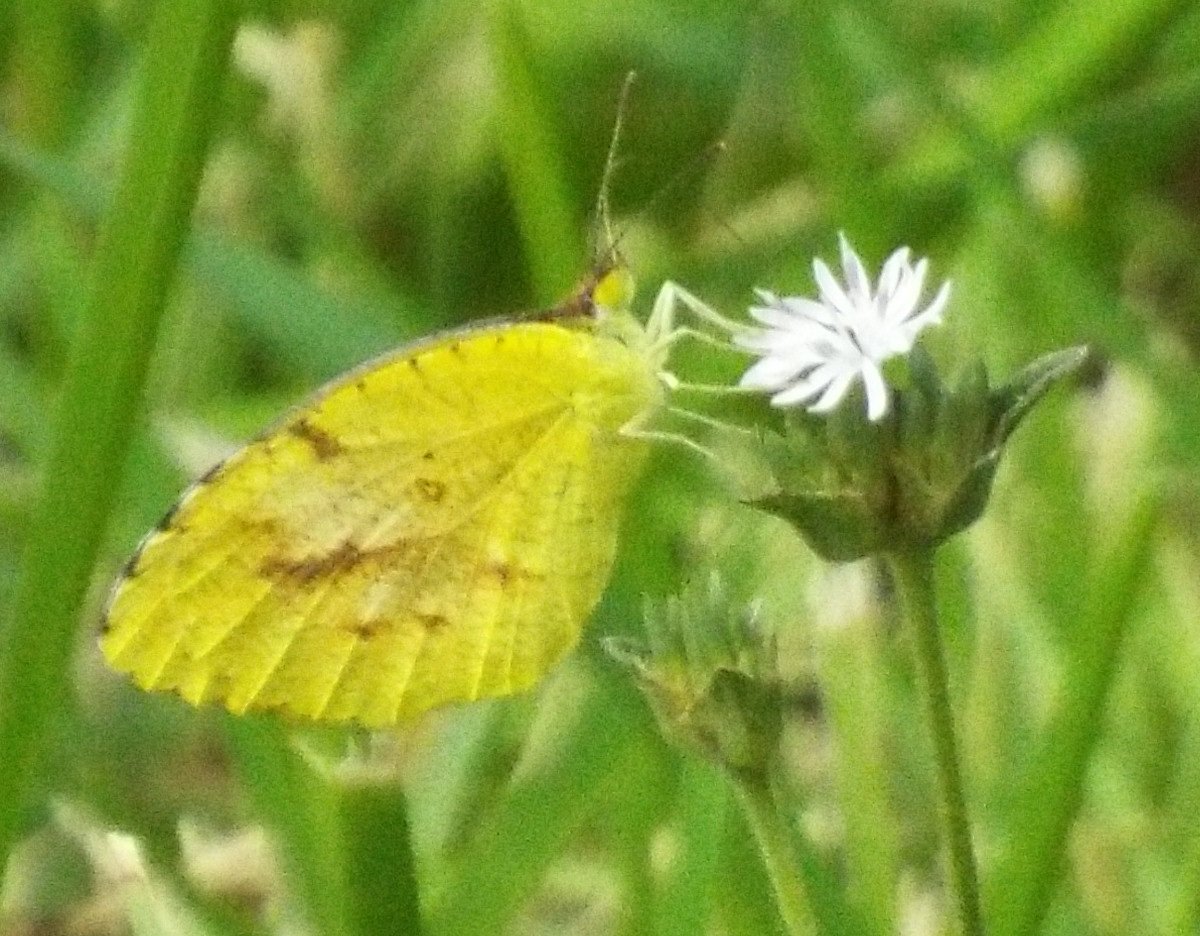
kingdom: Animalia
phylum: Arthropoda
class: Insecta
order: Lepidoptera
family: Pieridae
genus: Abaeis
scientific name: Abaeis nicippe
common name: Sleepy Orange
